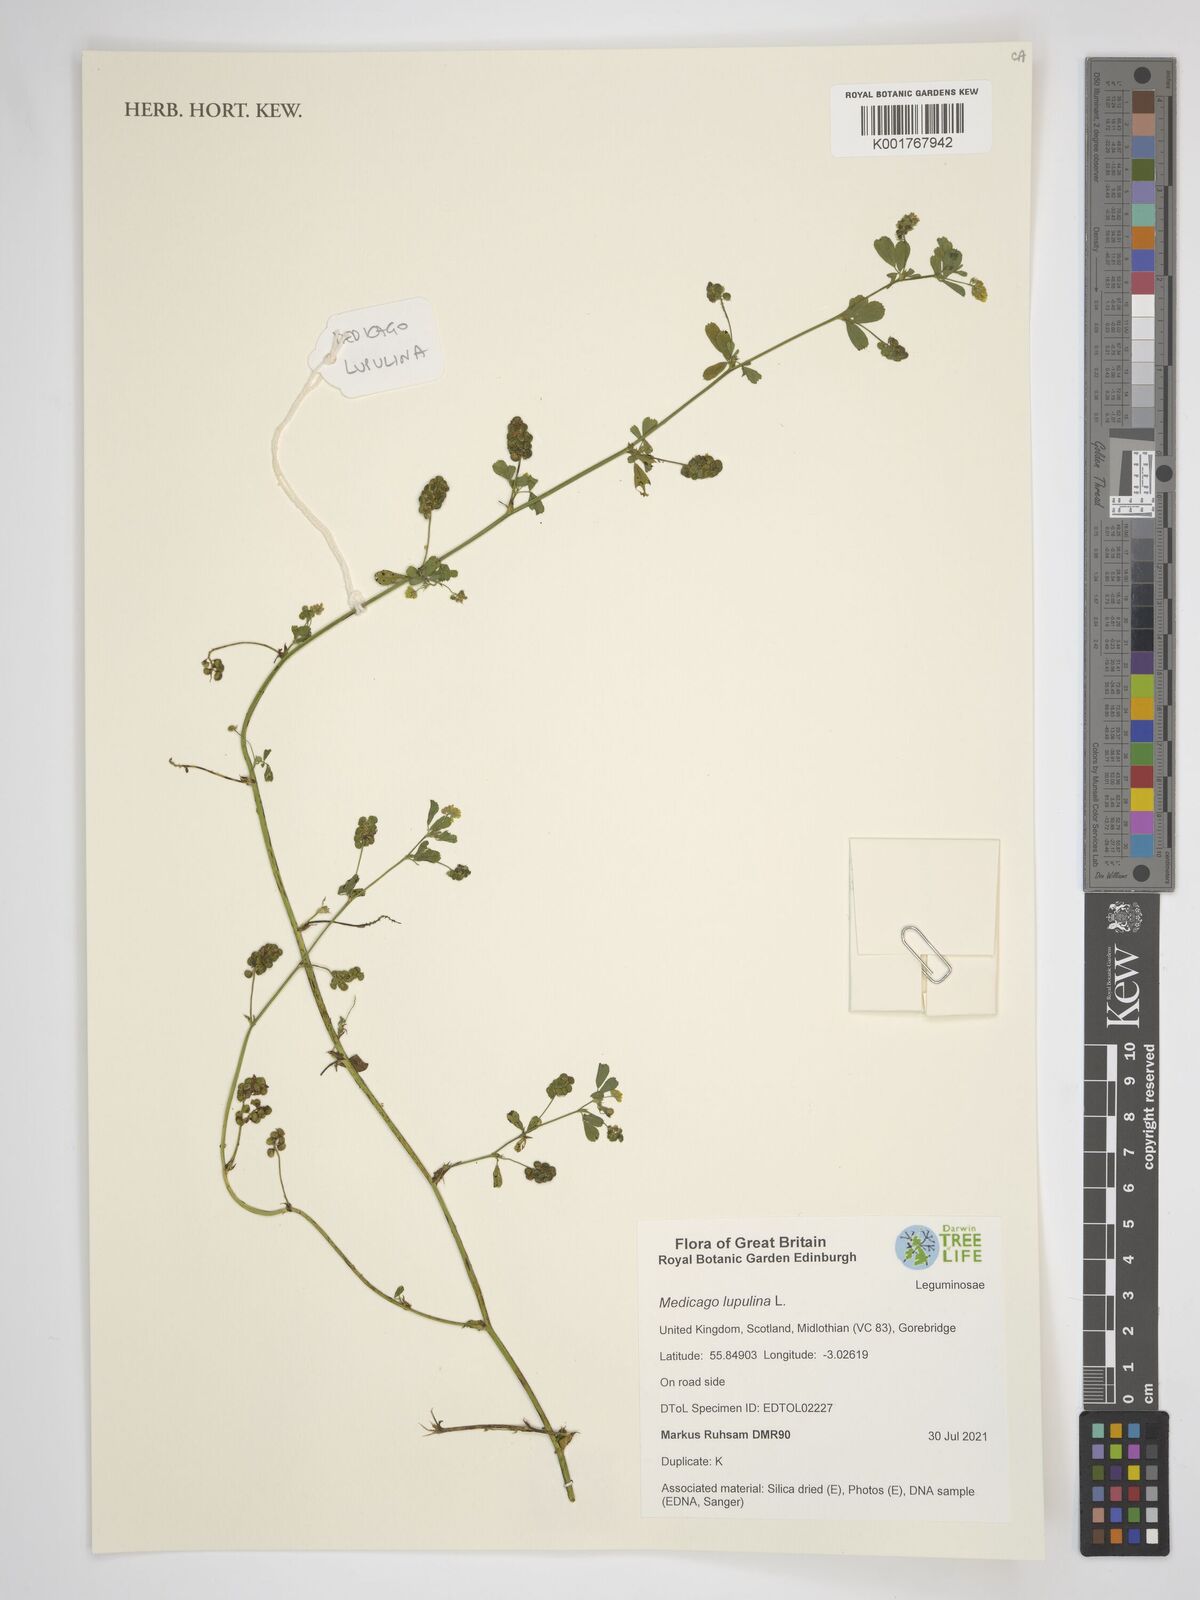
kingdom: Plantae
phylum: Tracheophyta
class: Magnoliopsida
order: Fabales
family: Fabaceae
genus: Medicago
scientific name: Medicago lupulina
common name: Black medick
